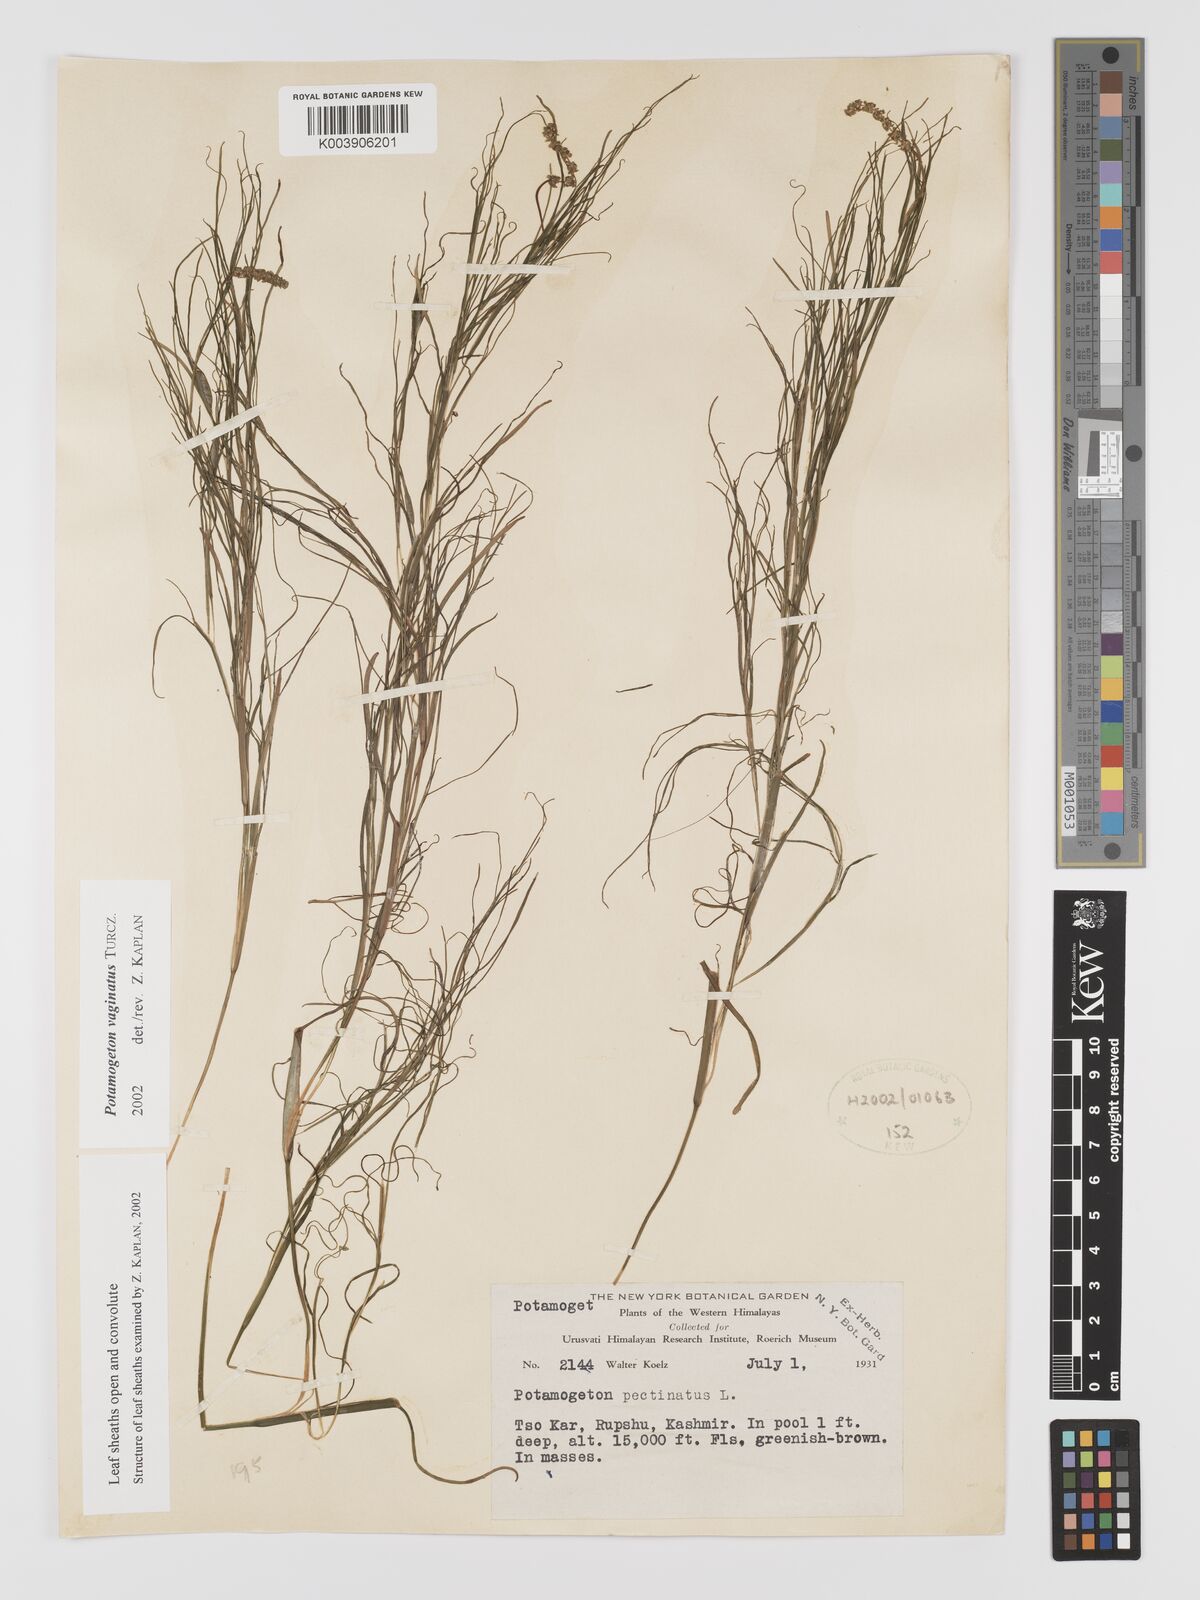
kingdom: Plantae
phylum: Tracheophyta
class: Liliopsida
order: Alismatales
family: Potamogetonaceae
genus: Stuckenia
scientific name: Stuckenia vaginata
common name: Big-sheathed pondweed
